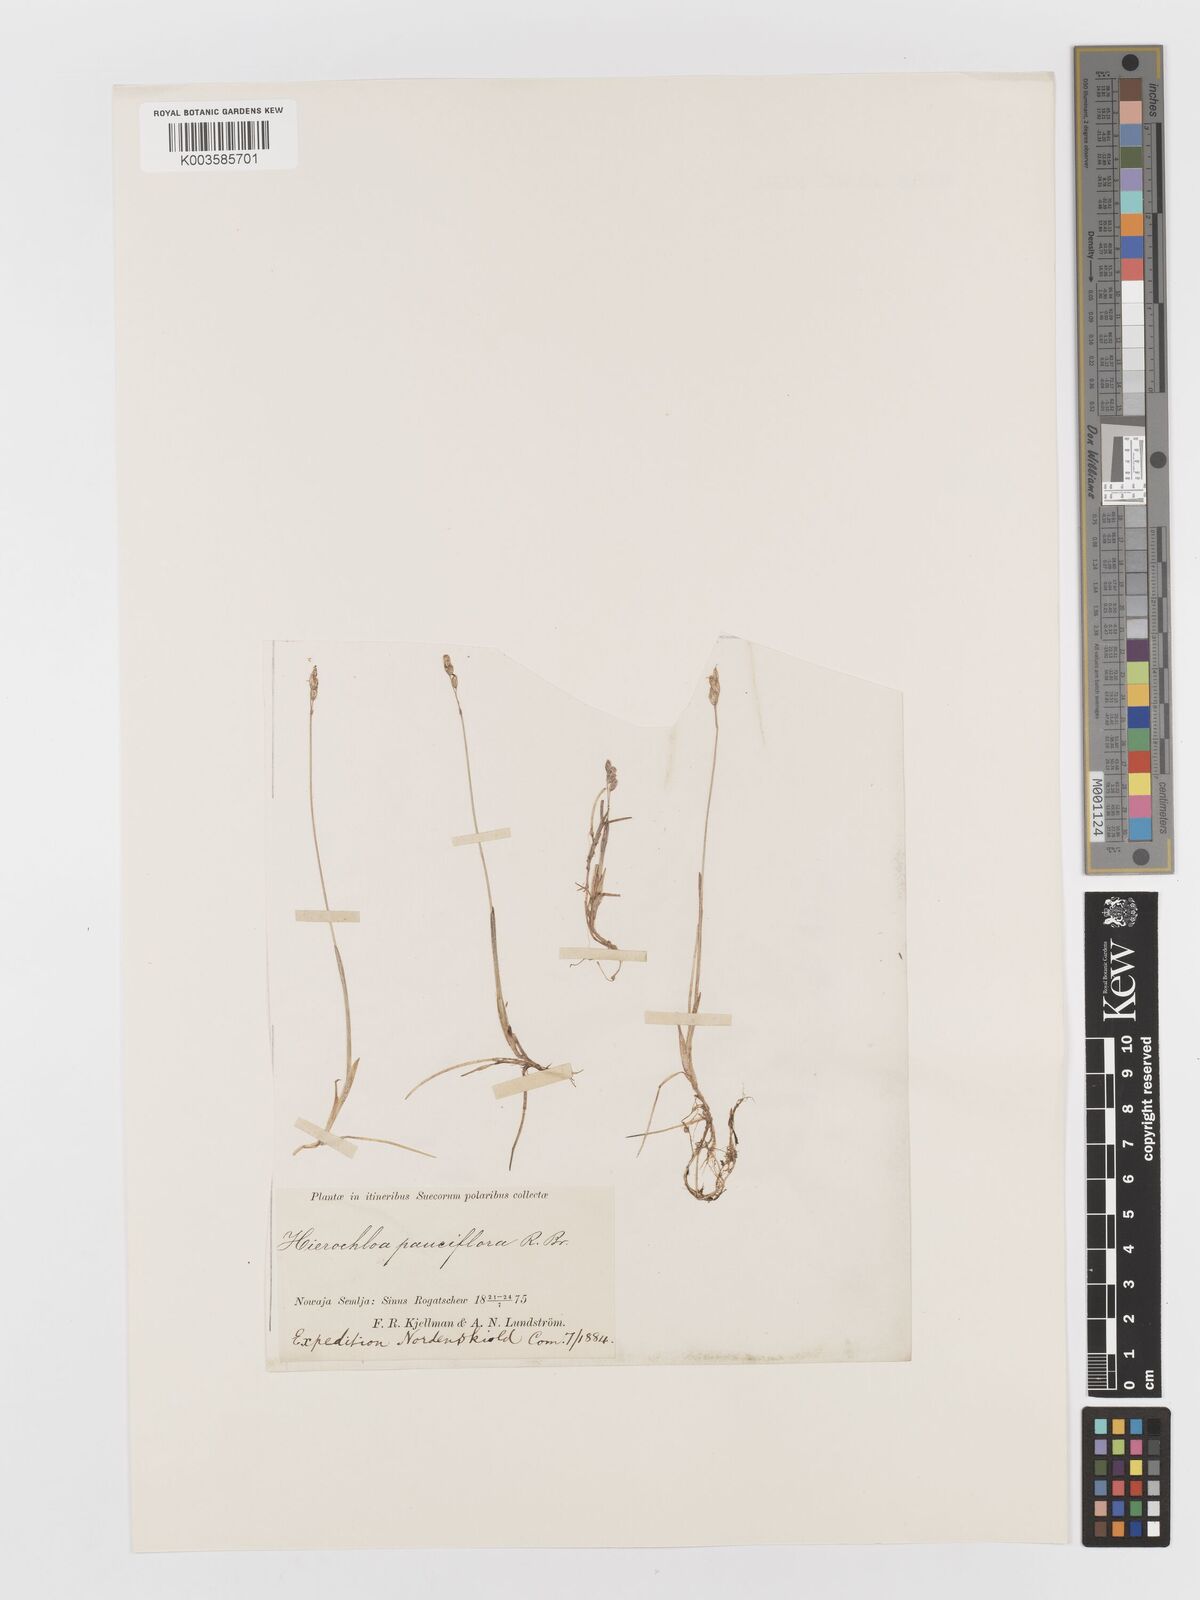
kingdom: Plantae
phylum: Tracheophyta
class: Liliopsida
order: Poales
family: Poaceae
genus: Anthoxanthum
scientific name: Anthoxanthum arcticum
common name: Arctic sweetgrass
